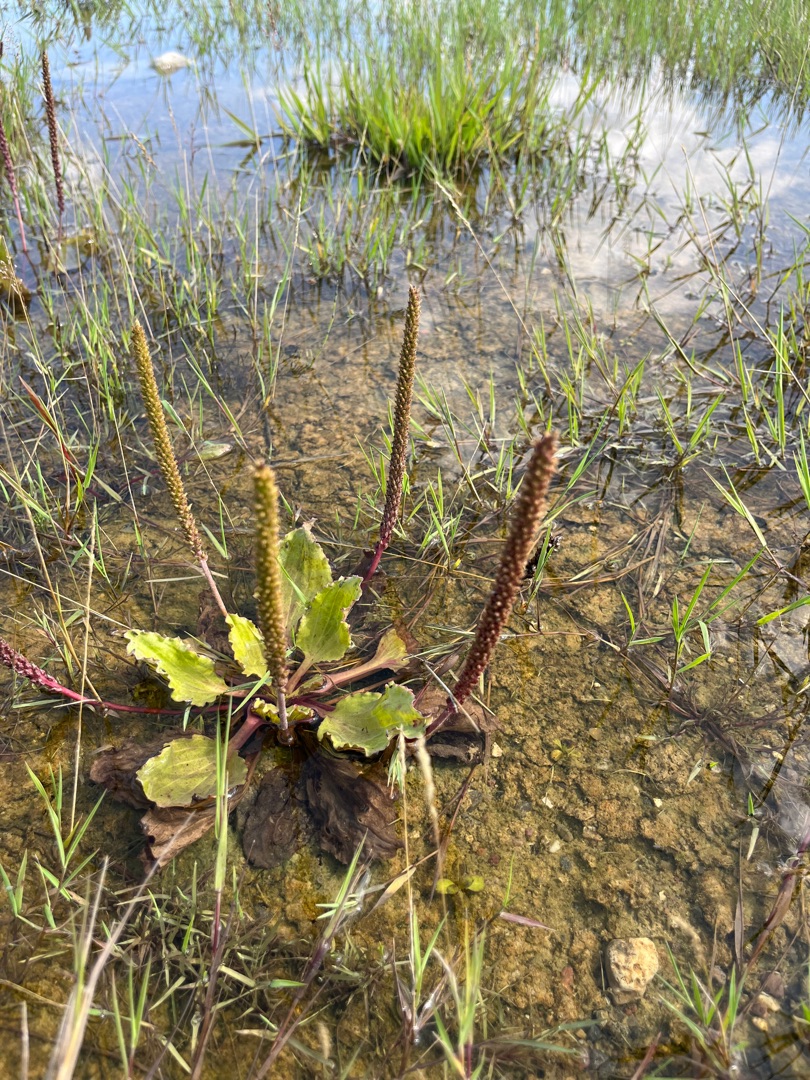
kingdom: Plantae
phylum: Tracheophyta
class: Magnoliopsida
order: Lamiales
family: Plantaginaceae
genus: Plantago
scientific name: Plantago major
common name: Glat vejbred
